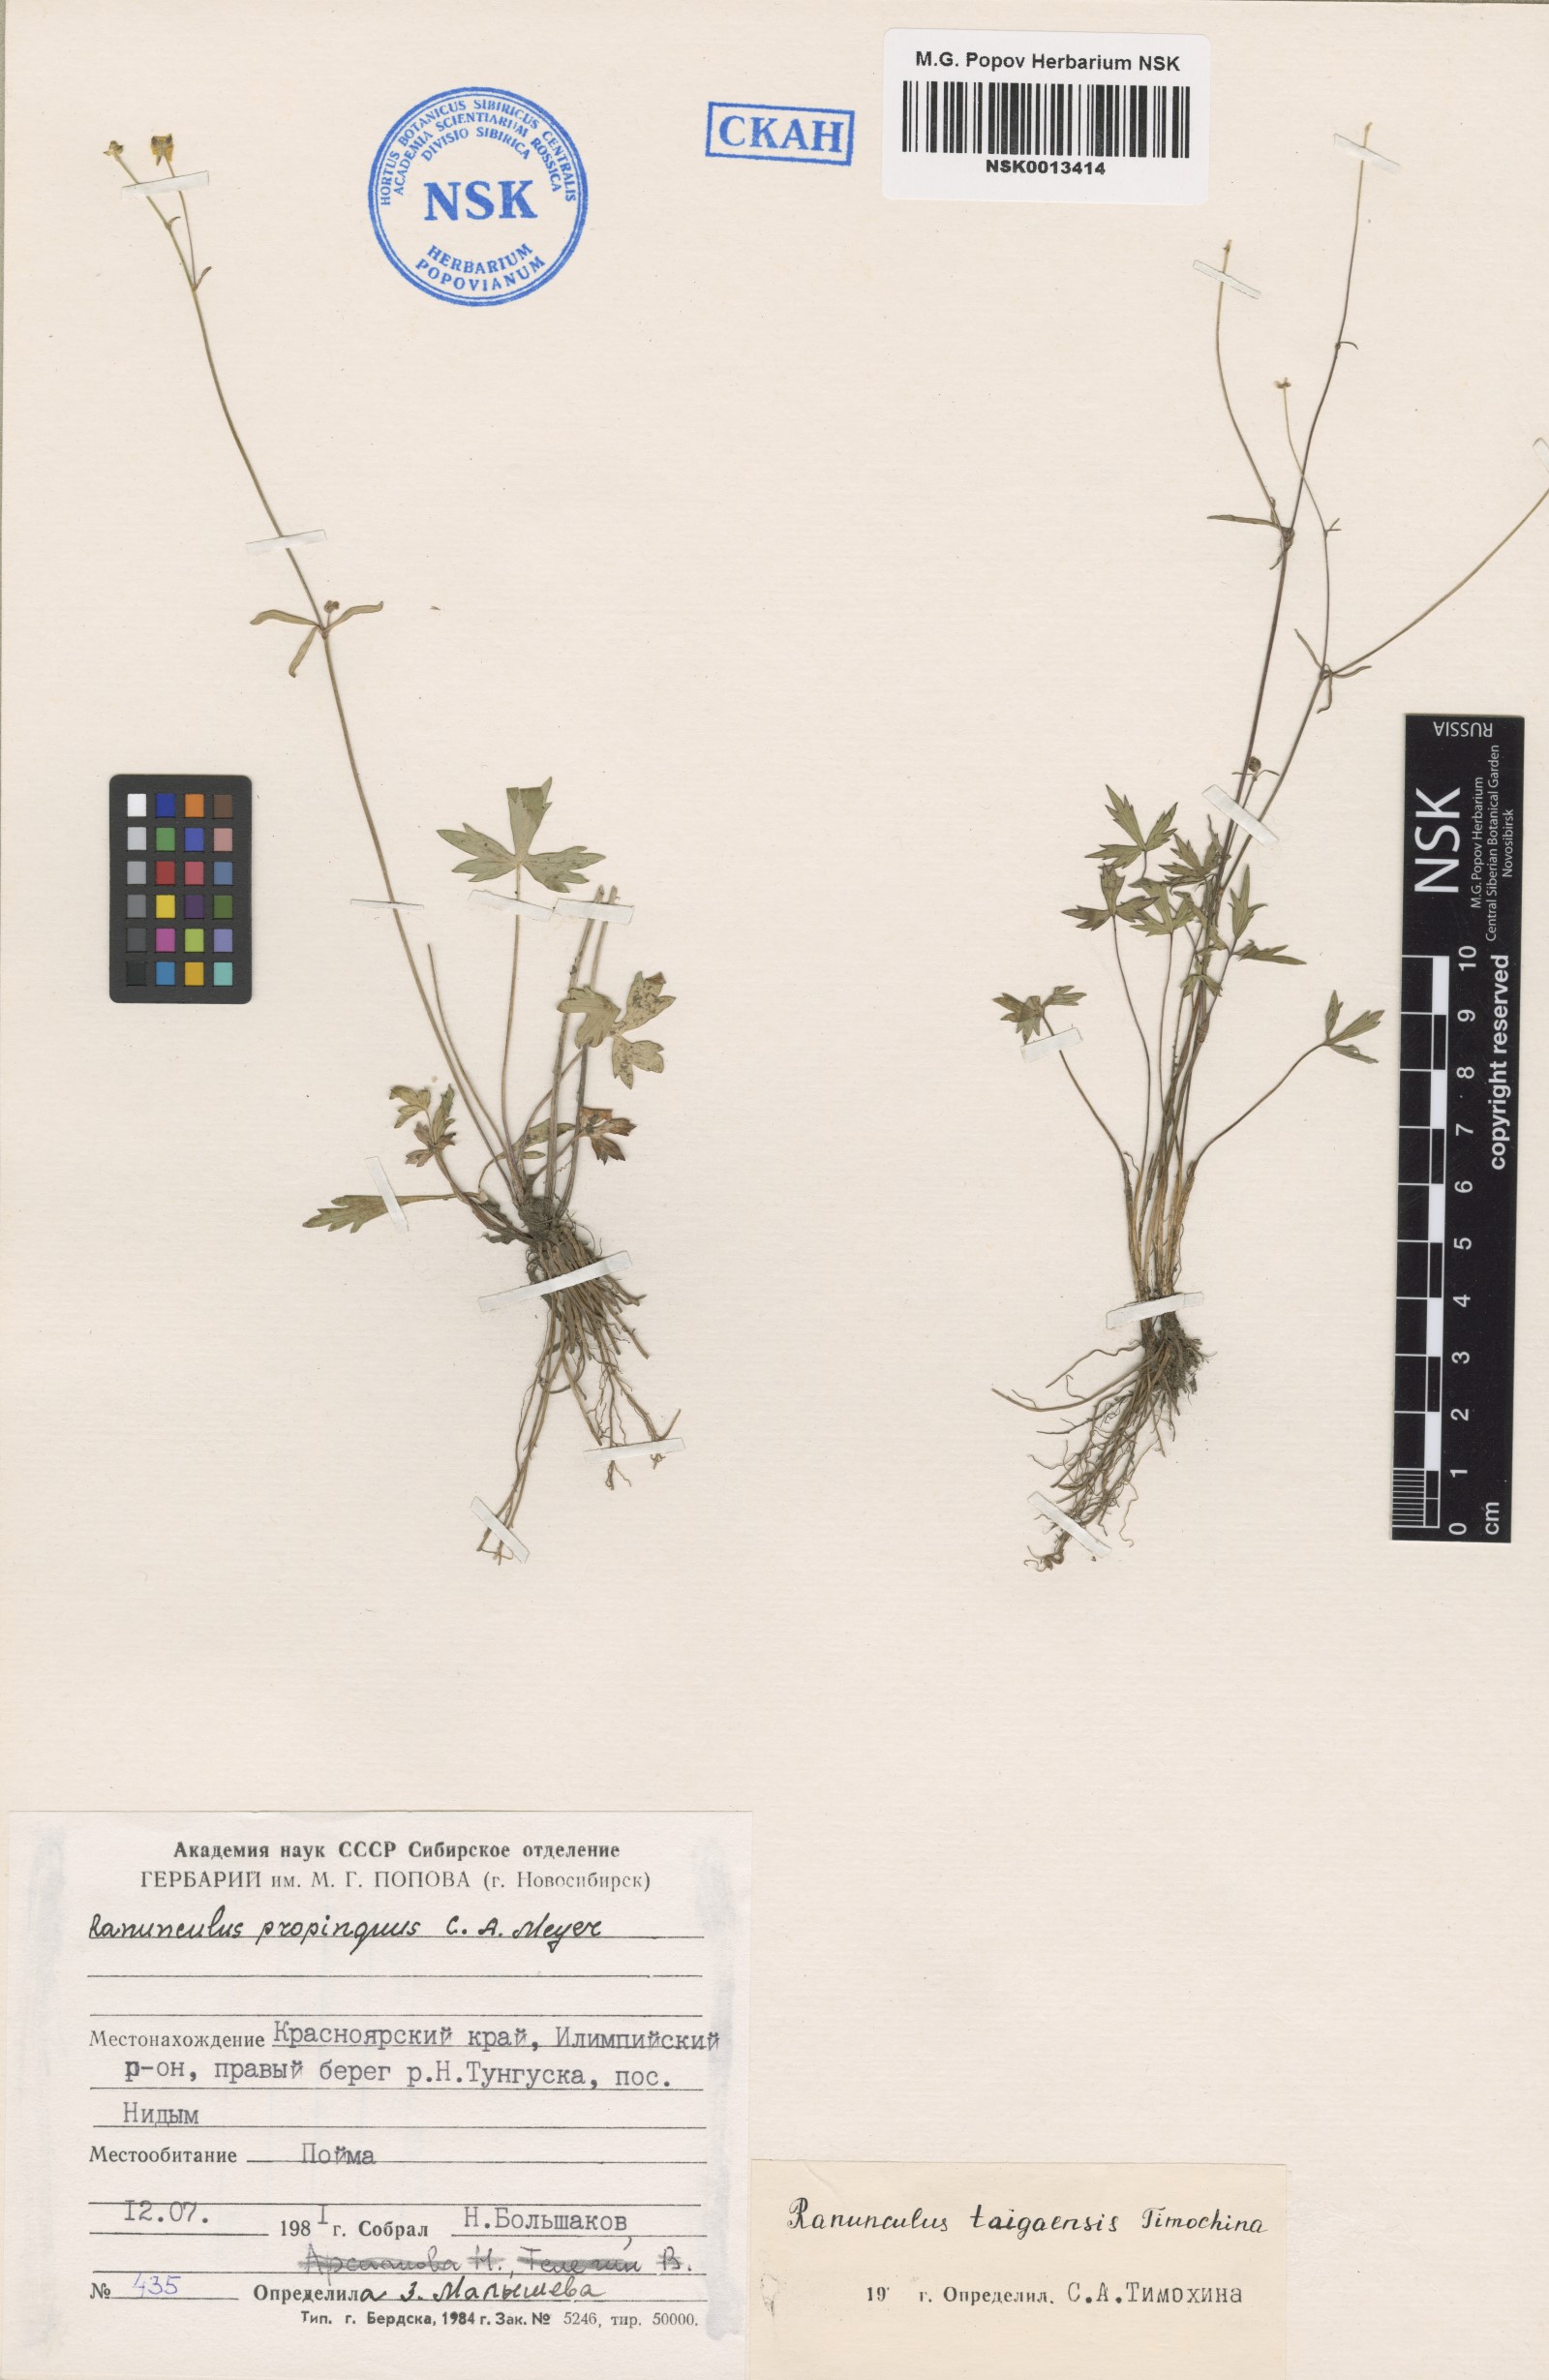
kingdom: Plantae
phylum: Tracheophyta
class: Magnoliopsida
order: Ranunculales
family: Ranunculaceae
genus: Ranunculus
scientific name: Ranunculus taigaensis
